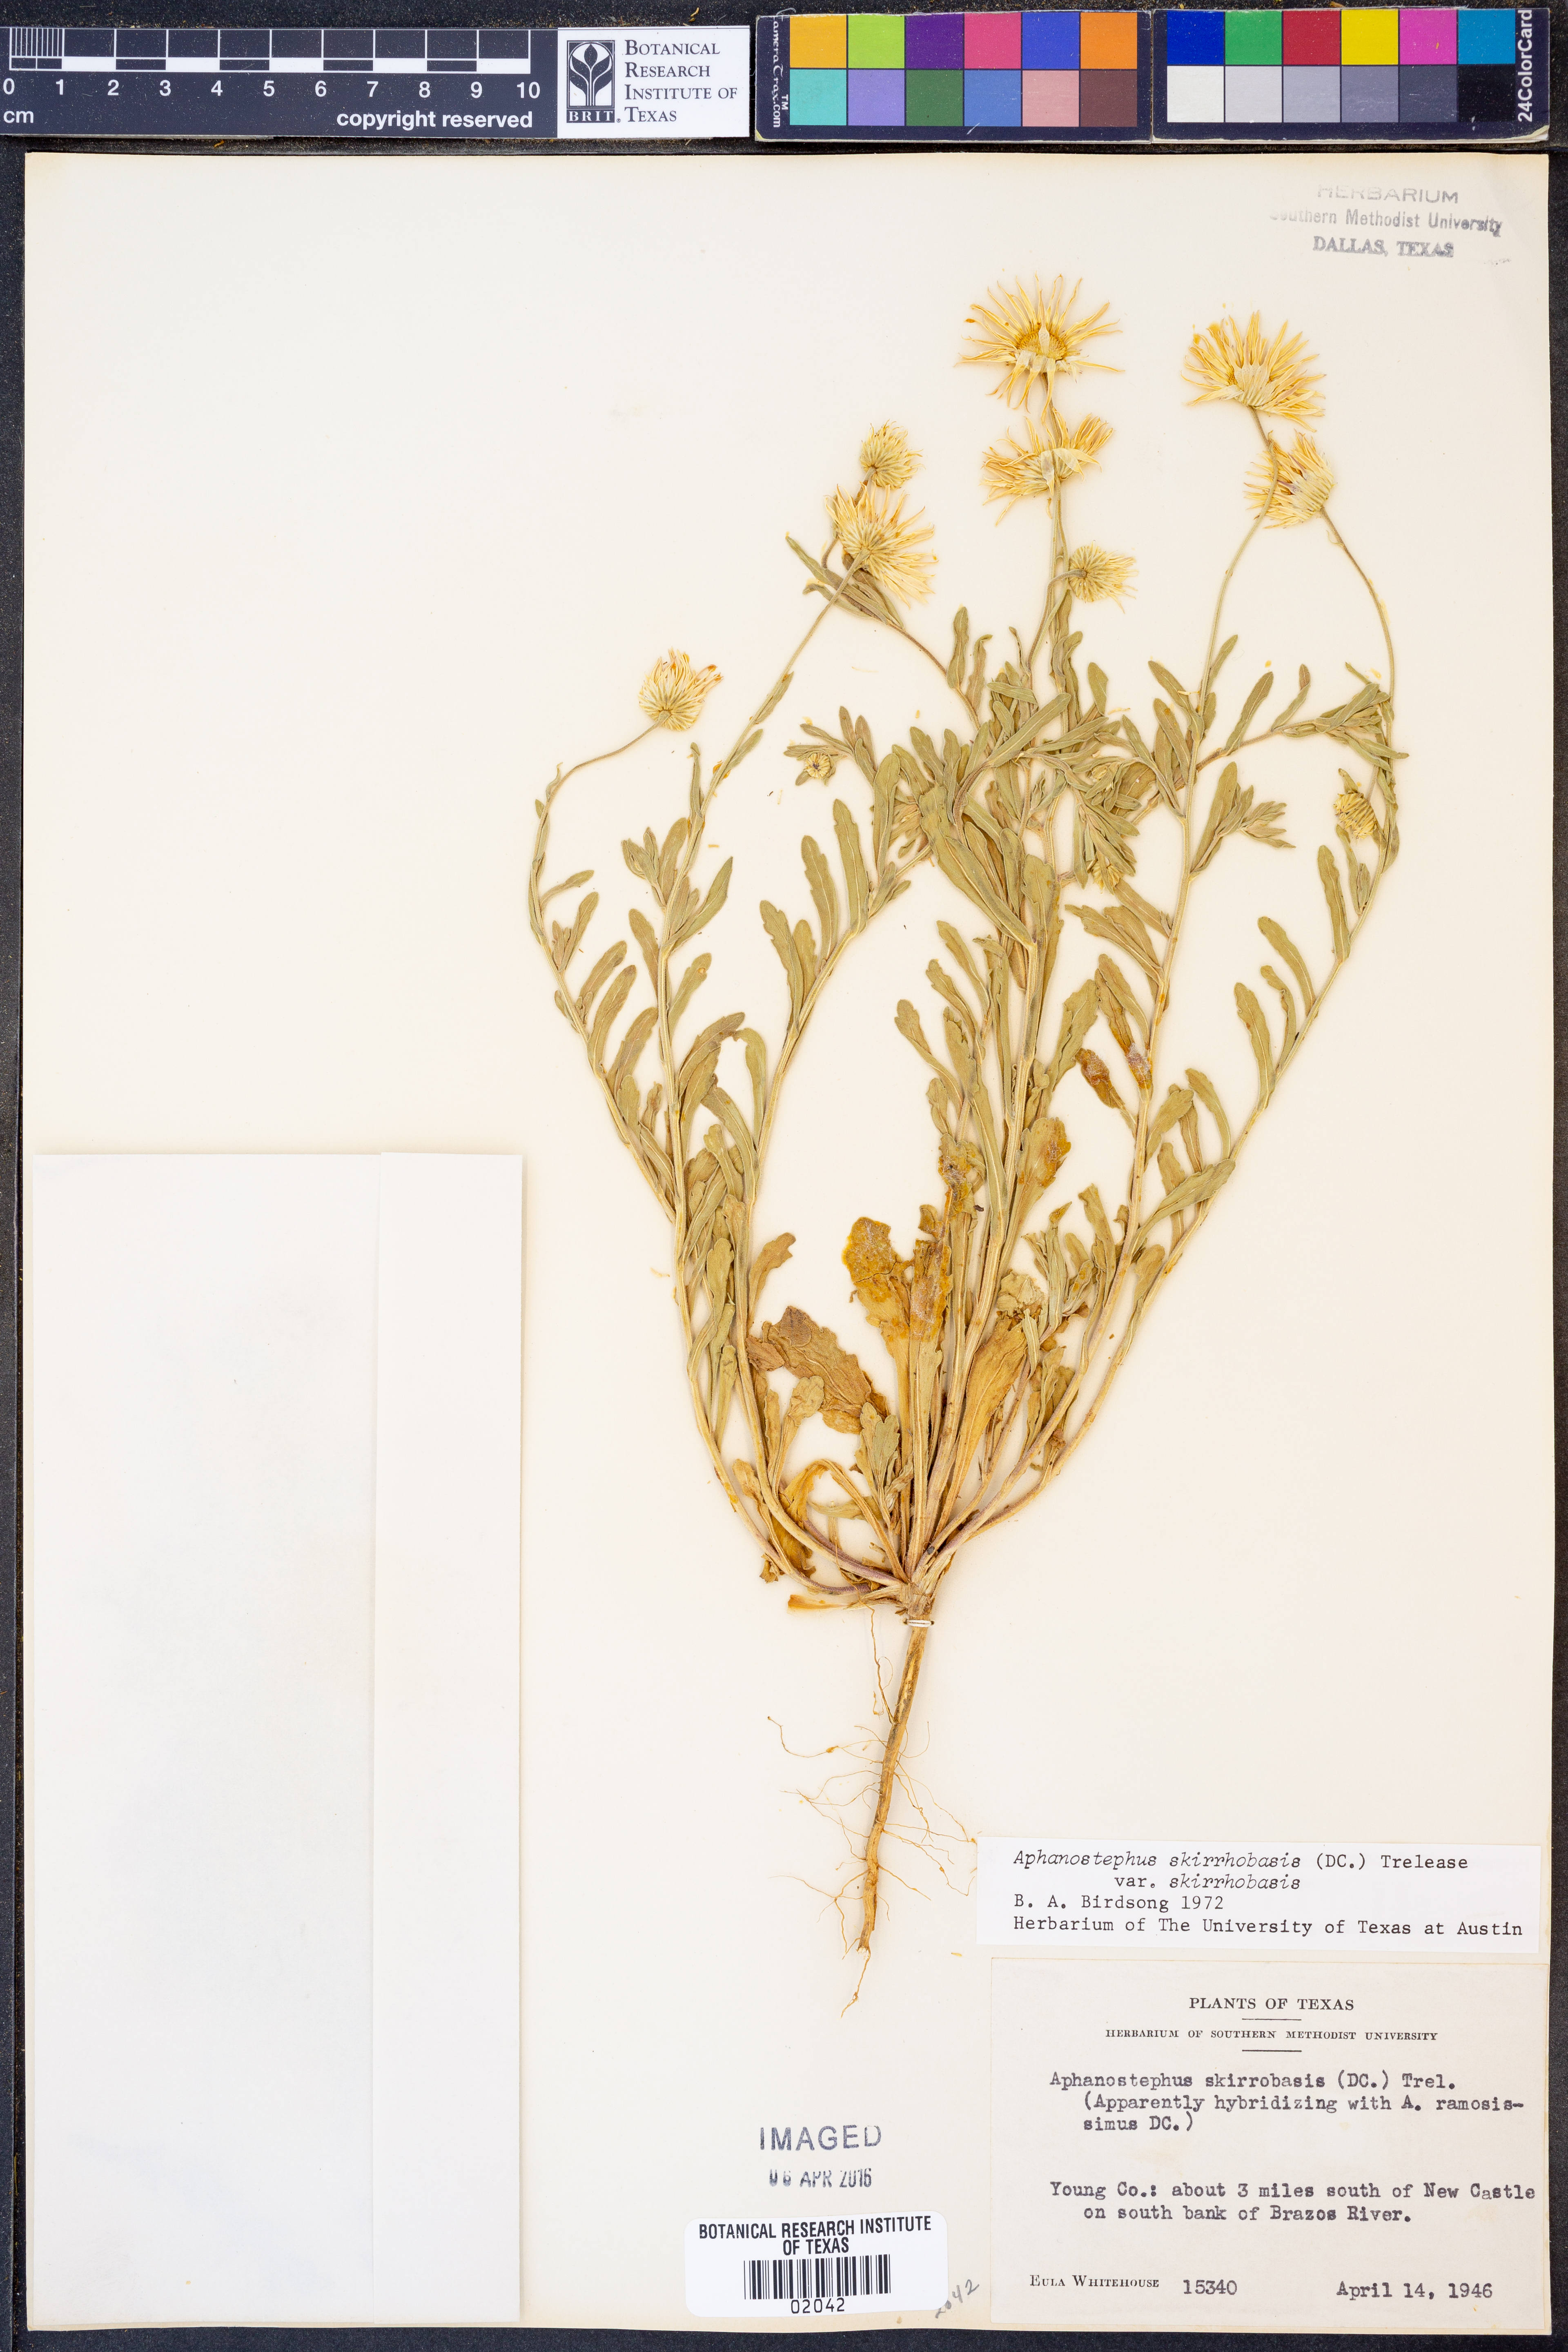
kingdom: Plantae
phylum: Tracheophyta
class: Magnoliopsida
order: Asterales
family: Asteraceae
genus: Aphanostephus
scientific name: Aphanostephus skirrhobasis
